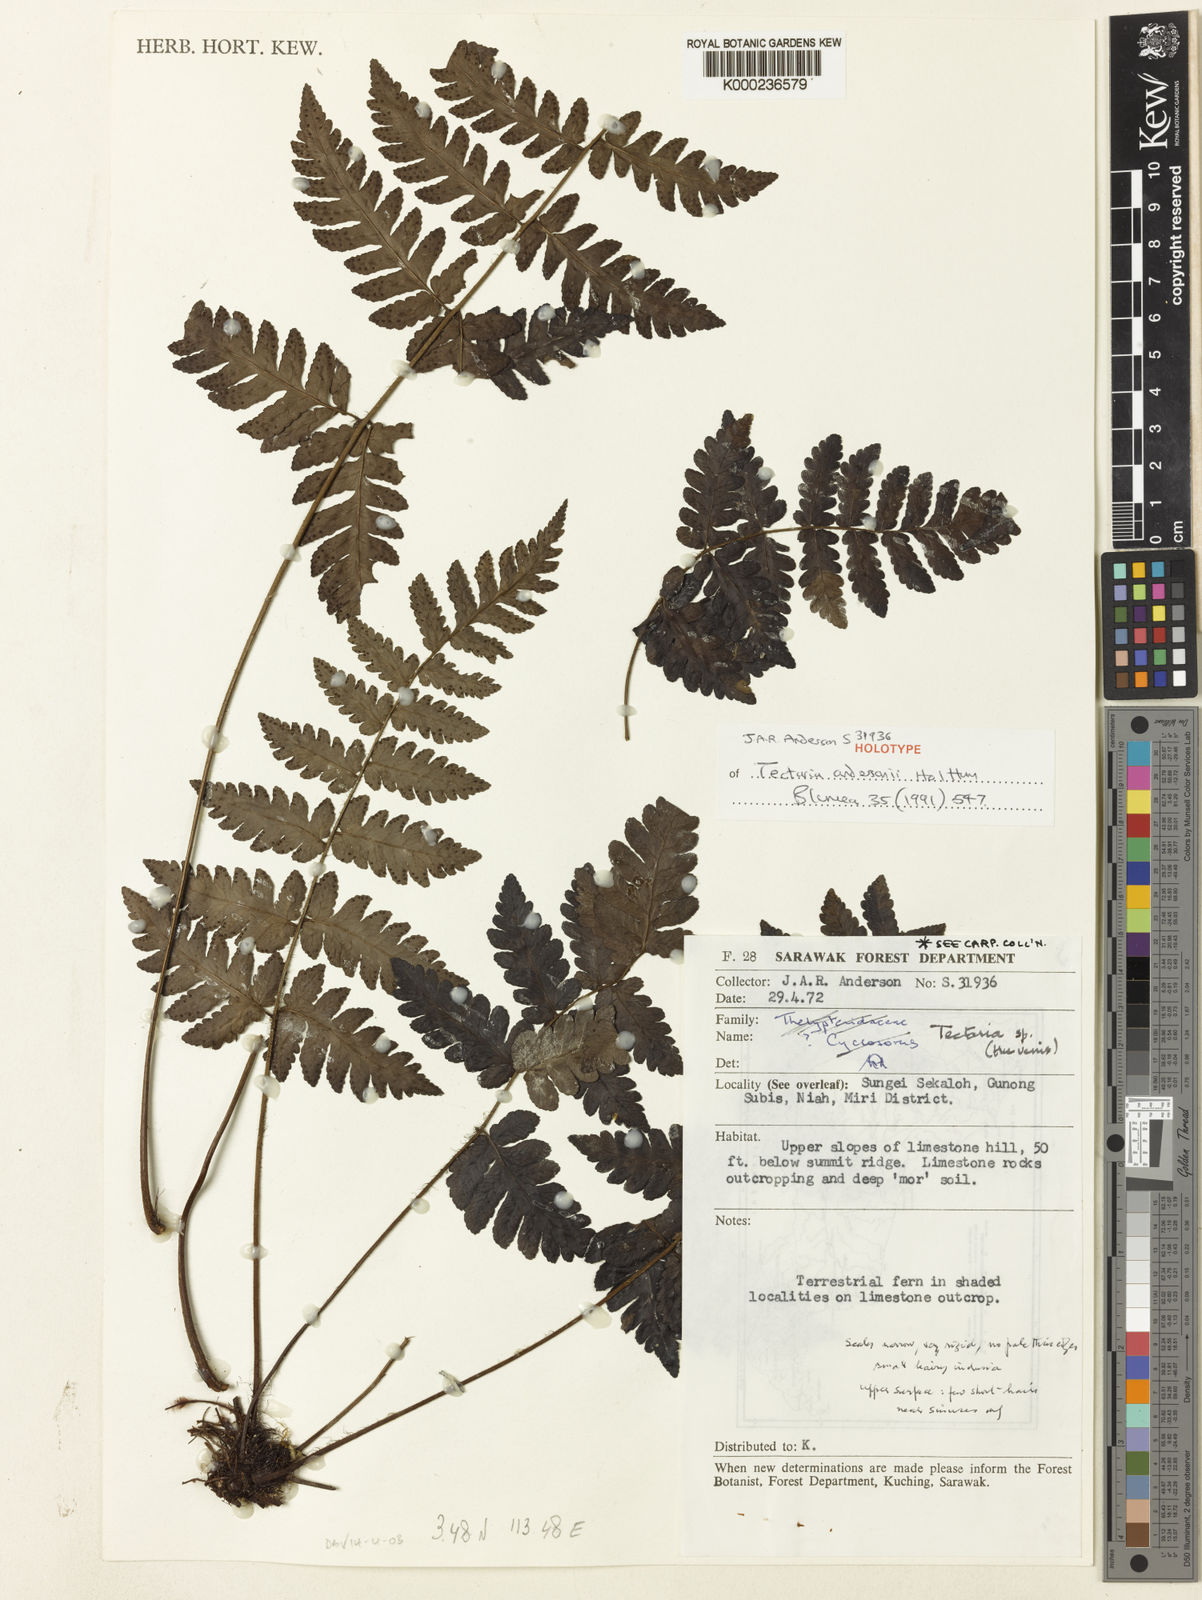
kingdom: Plantae
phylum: Tracheophyta
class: Polypodiopsida
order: Polypodiales
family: Tectariaceae
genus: Tectaria
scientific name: Tectaria andersonii
